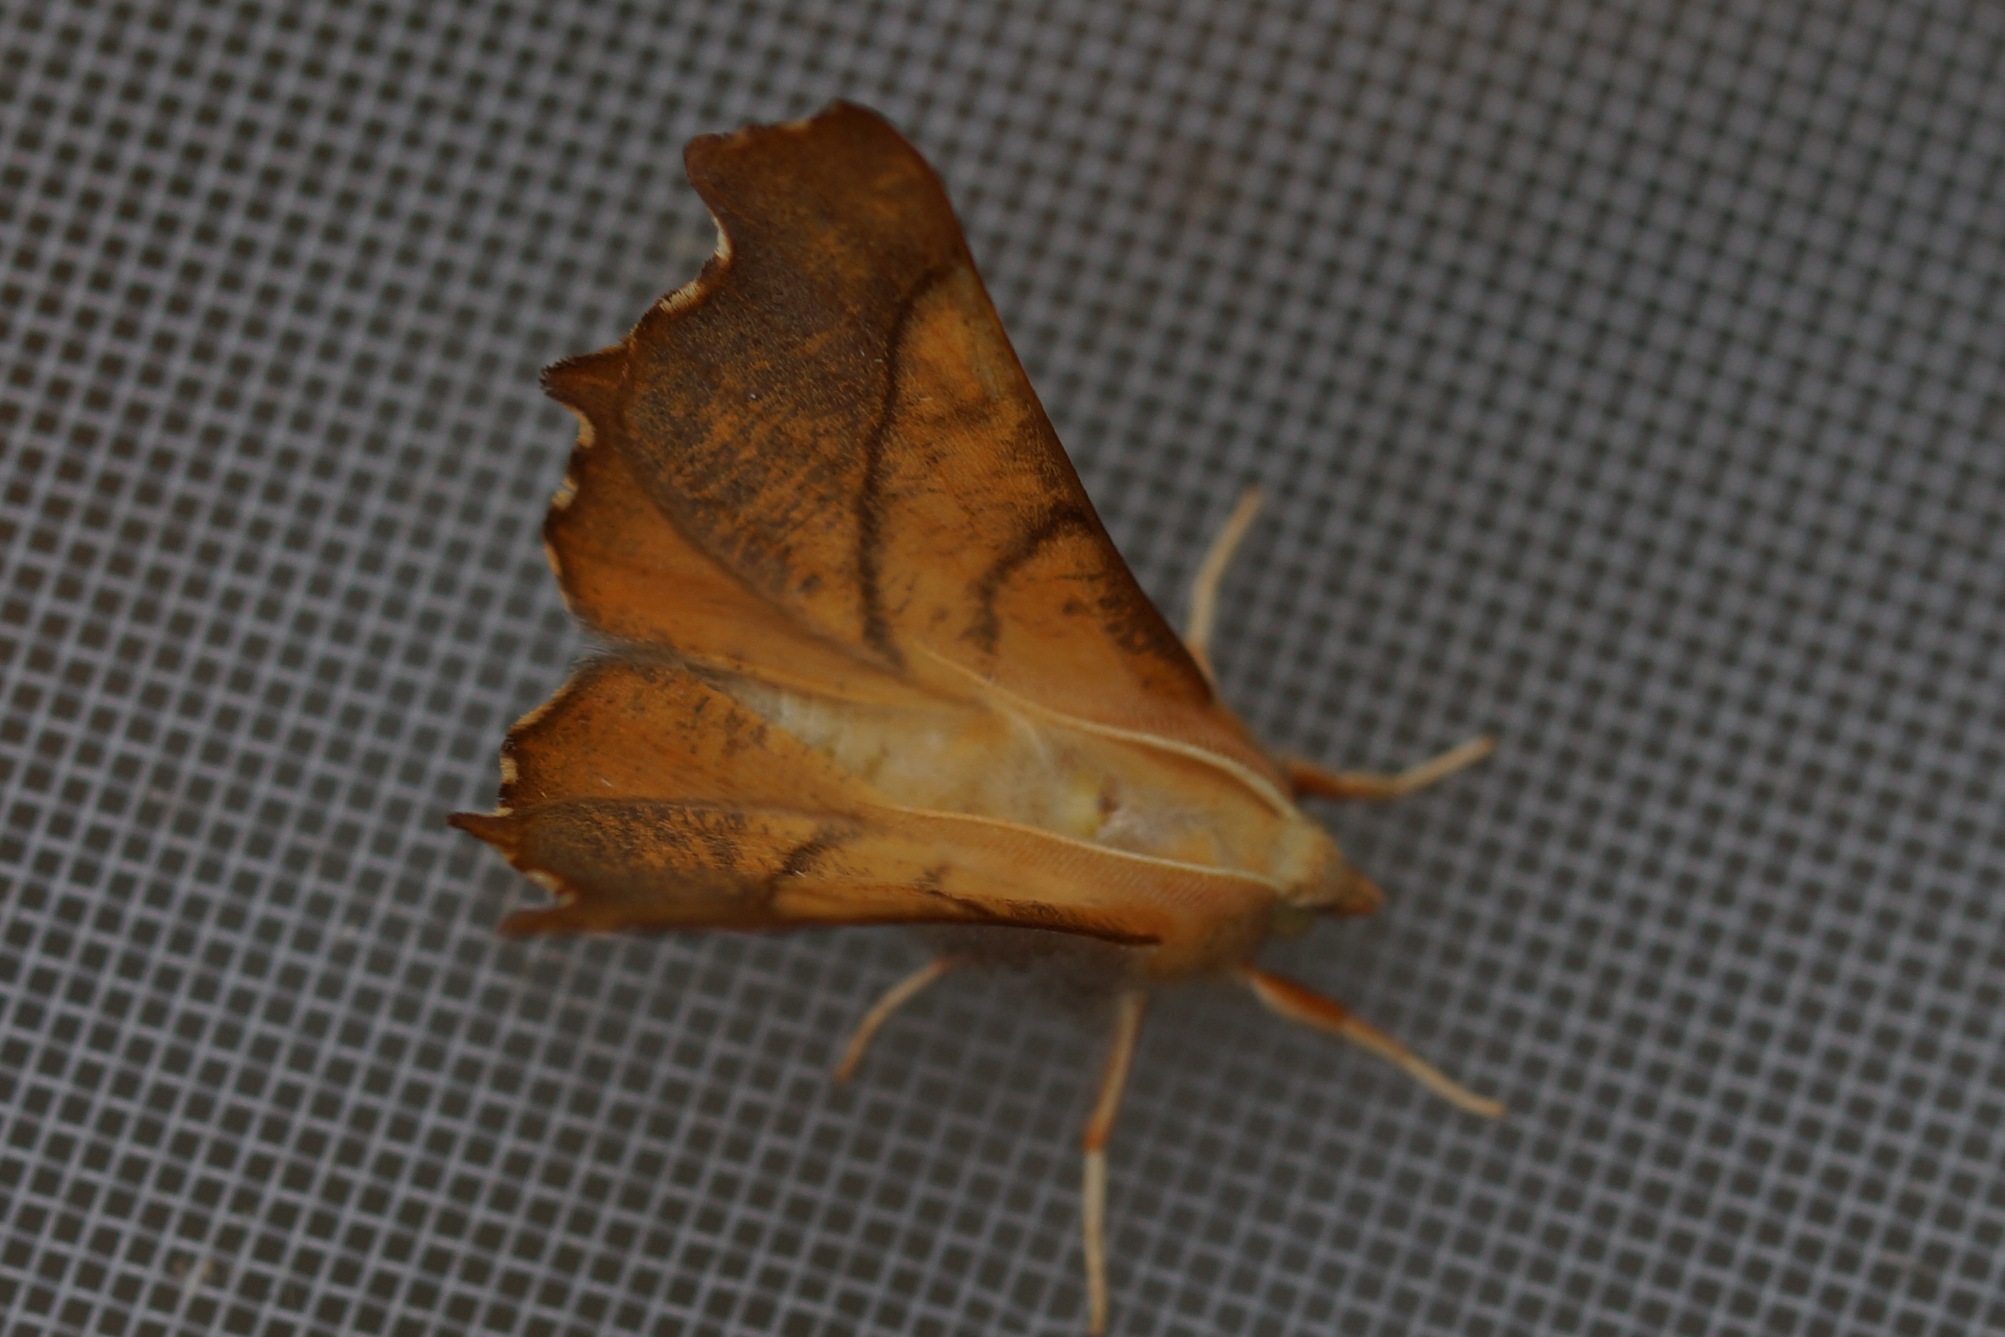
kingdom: Animalia
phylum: Arthropoda
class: Insecta
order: Lepidoptera
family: Geometridae
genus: Ennomos
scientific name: Ennomos fuscantaria
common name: Asketandmåler
